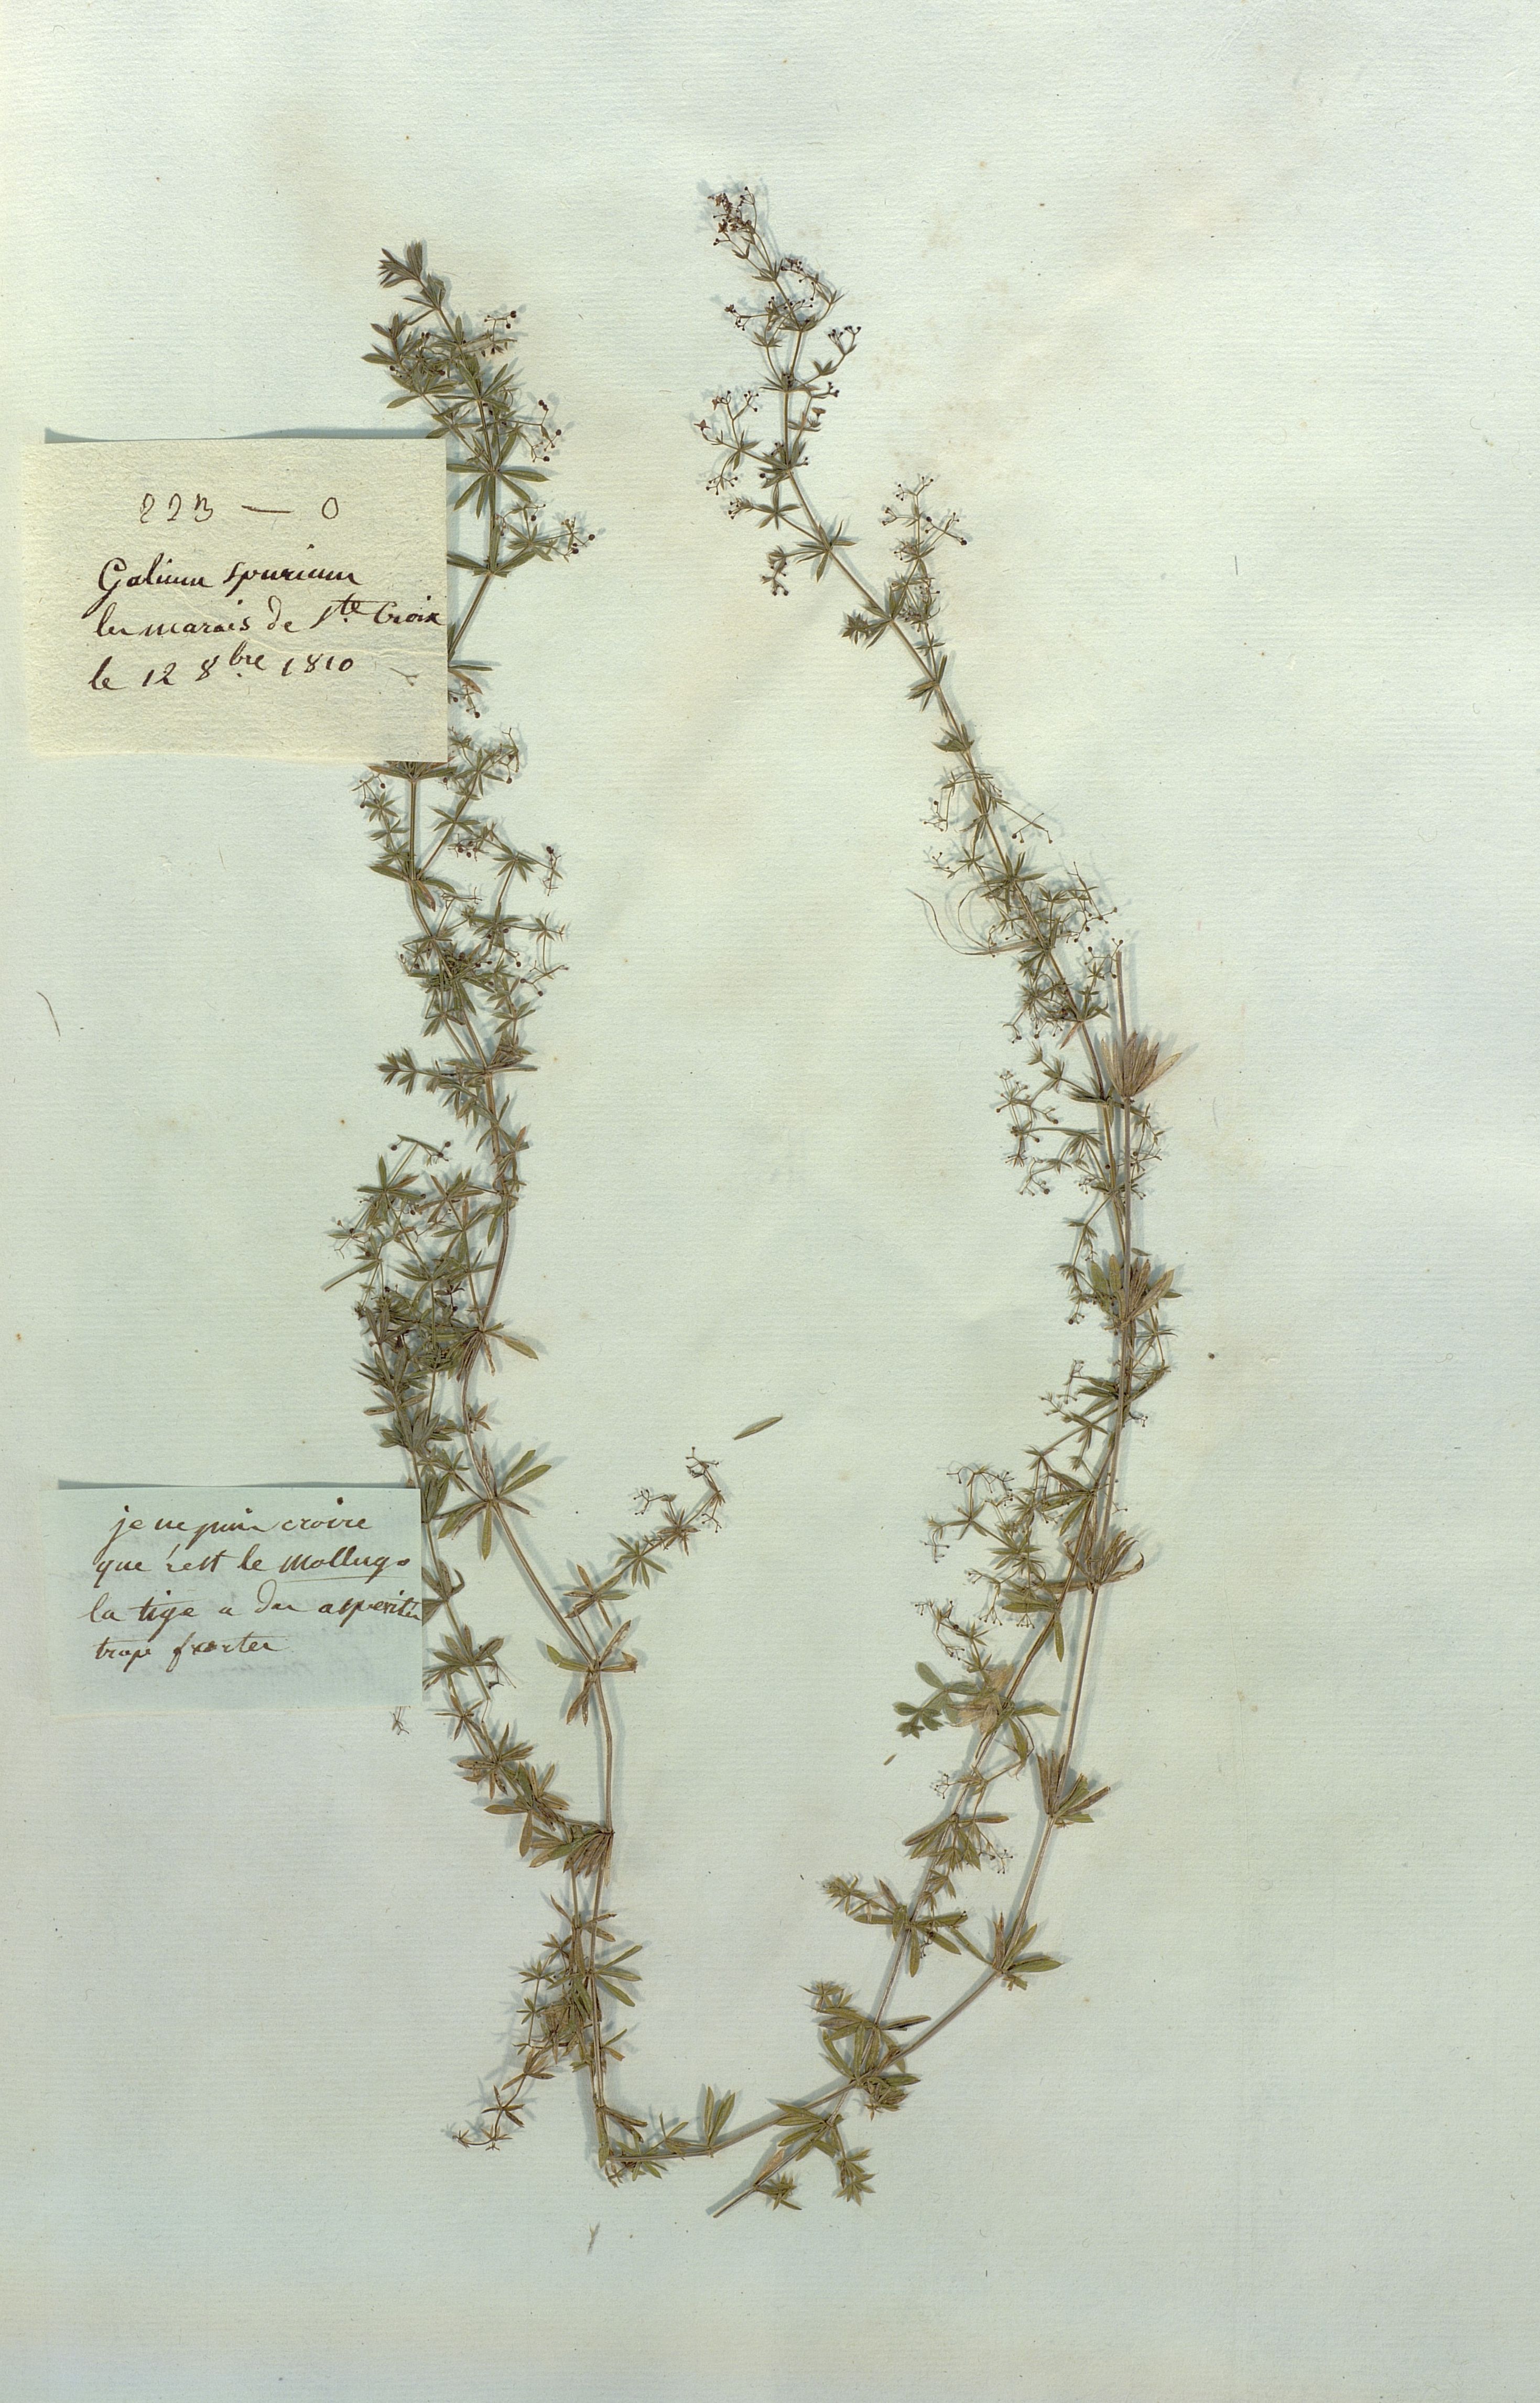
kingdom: Plantae
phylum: Tracheophyta
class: Magnoliopsida
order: Gentianales
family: Rubiaceae
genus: Galium
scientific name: Galium mollugo
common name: Hedge bedstraw
